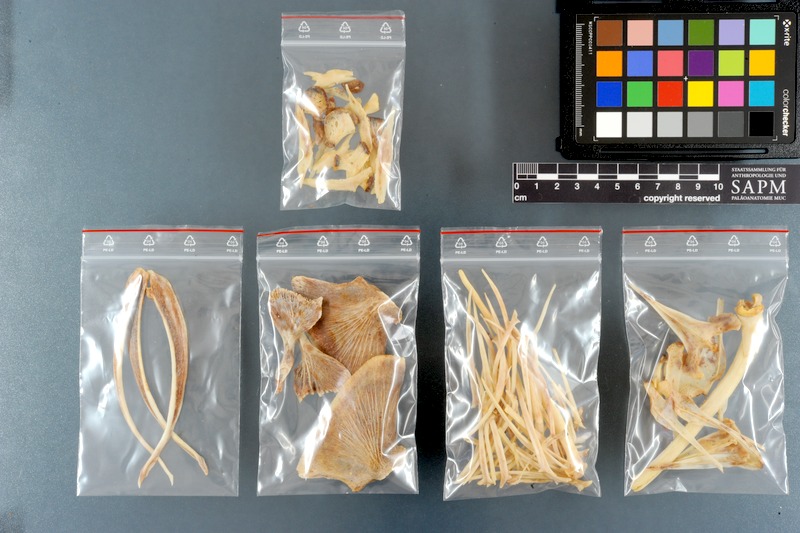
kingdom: Animalia
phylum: Chordata
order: Siluriformes
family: Pimelodidae
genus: Pseudoplatystoma
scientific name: Pseudoplatystoma fasciatum
